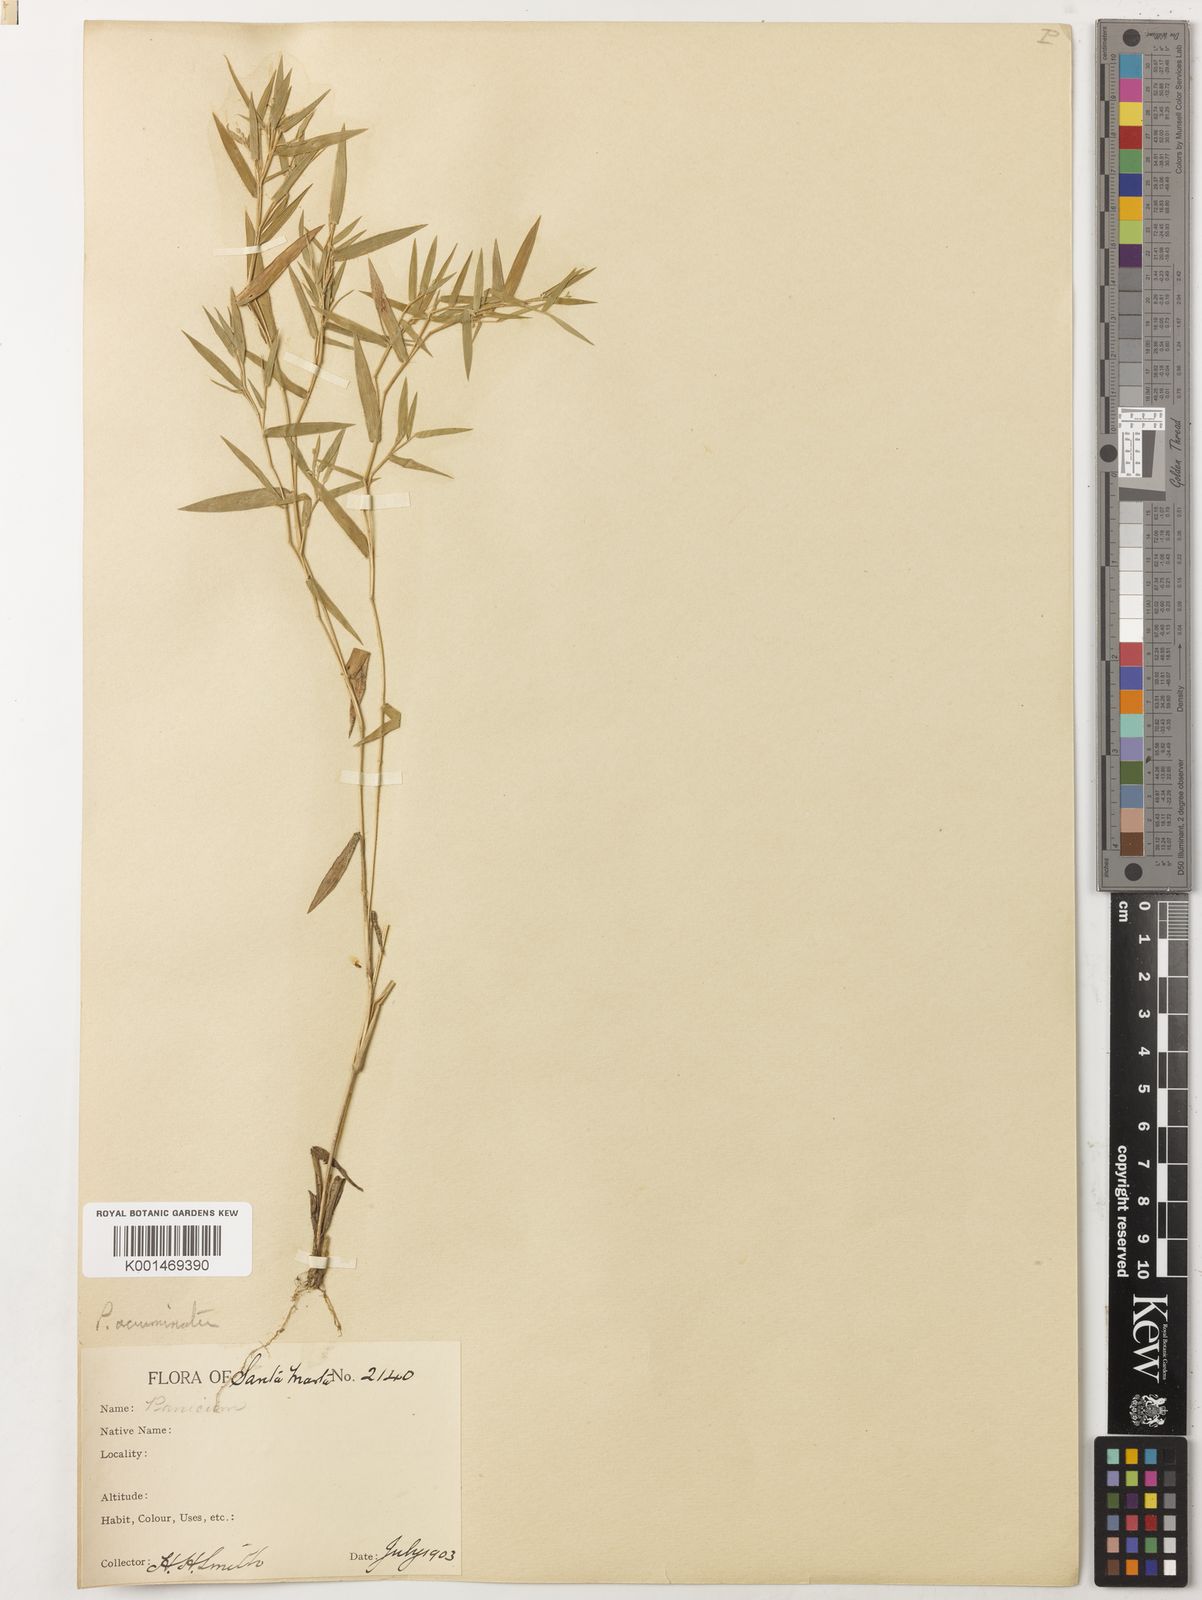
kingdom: Plantae
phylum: Tracheophyta
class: Liliopsida
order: Poales
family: Poaceae
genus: Dichanthelium
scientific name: Dichanthelium acuminatum
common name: Hairy panic grass
